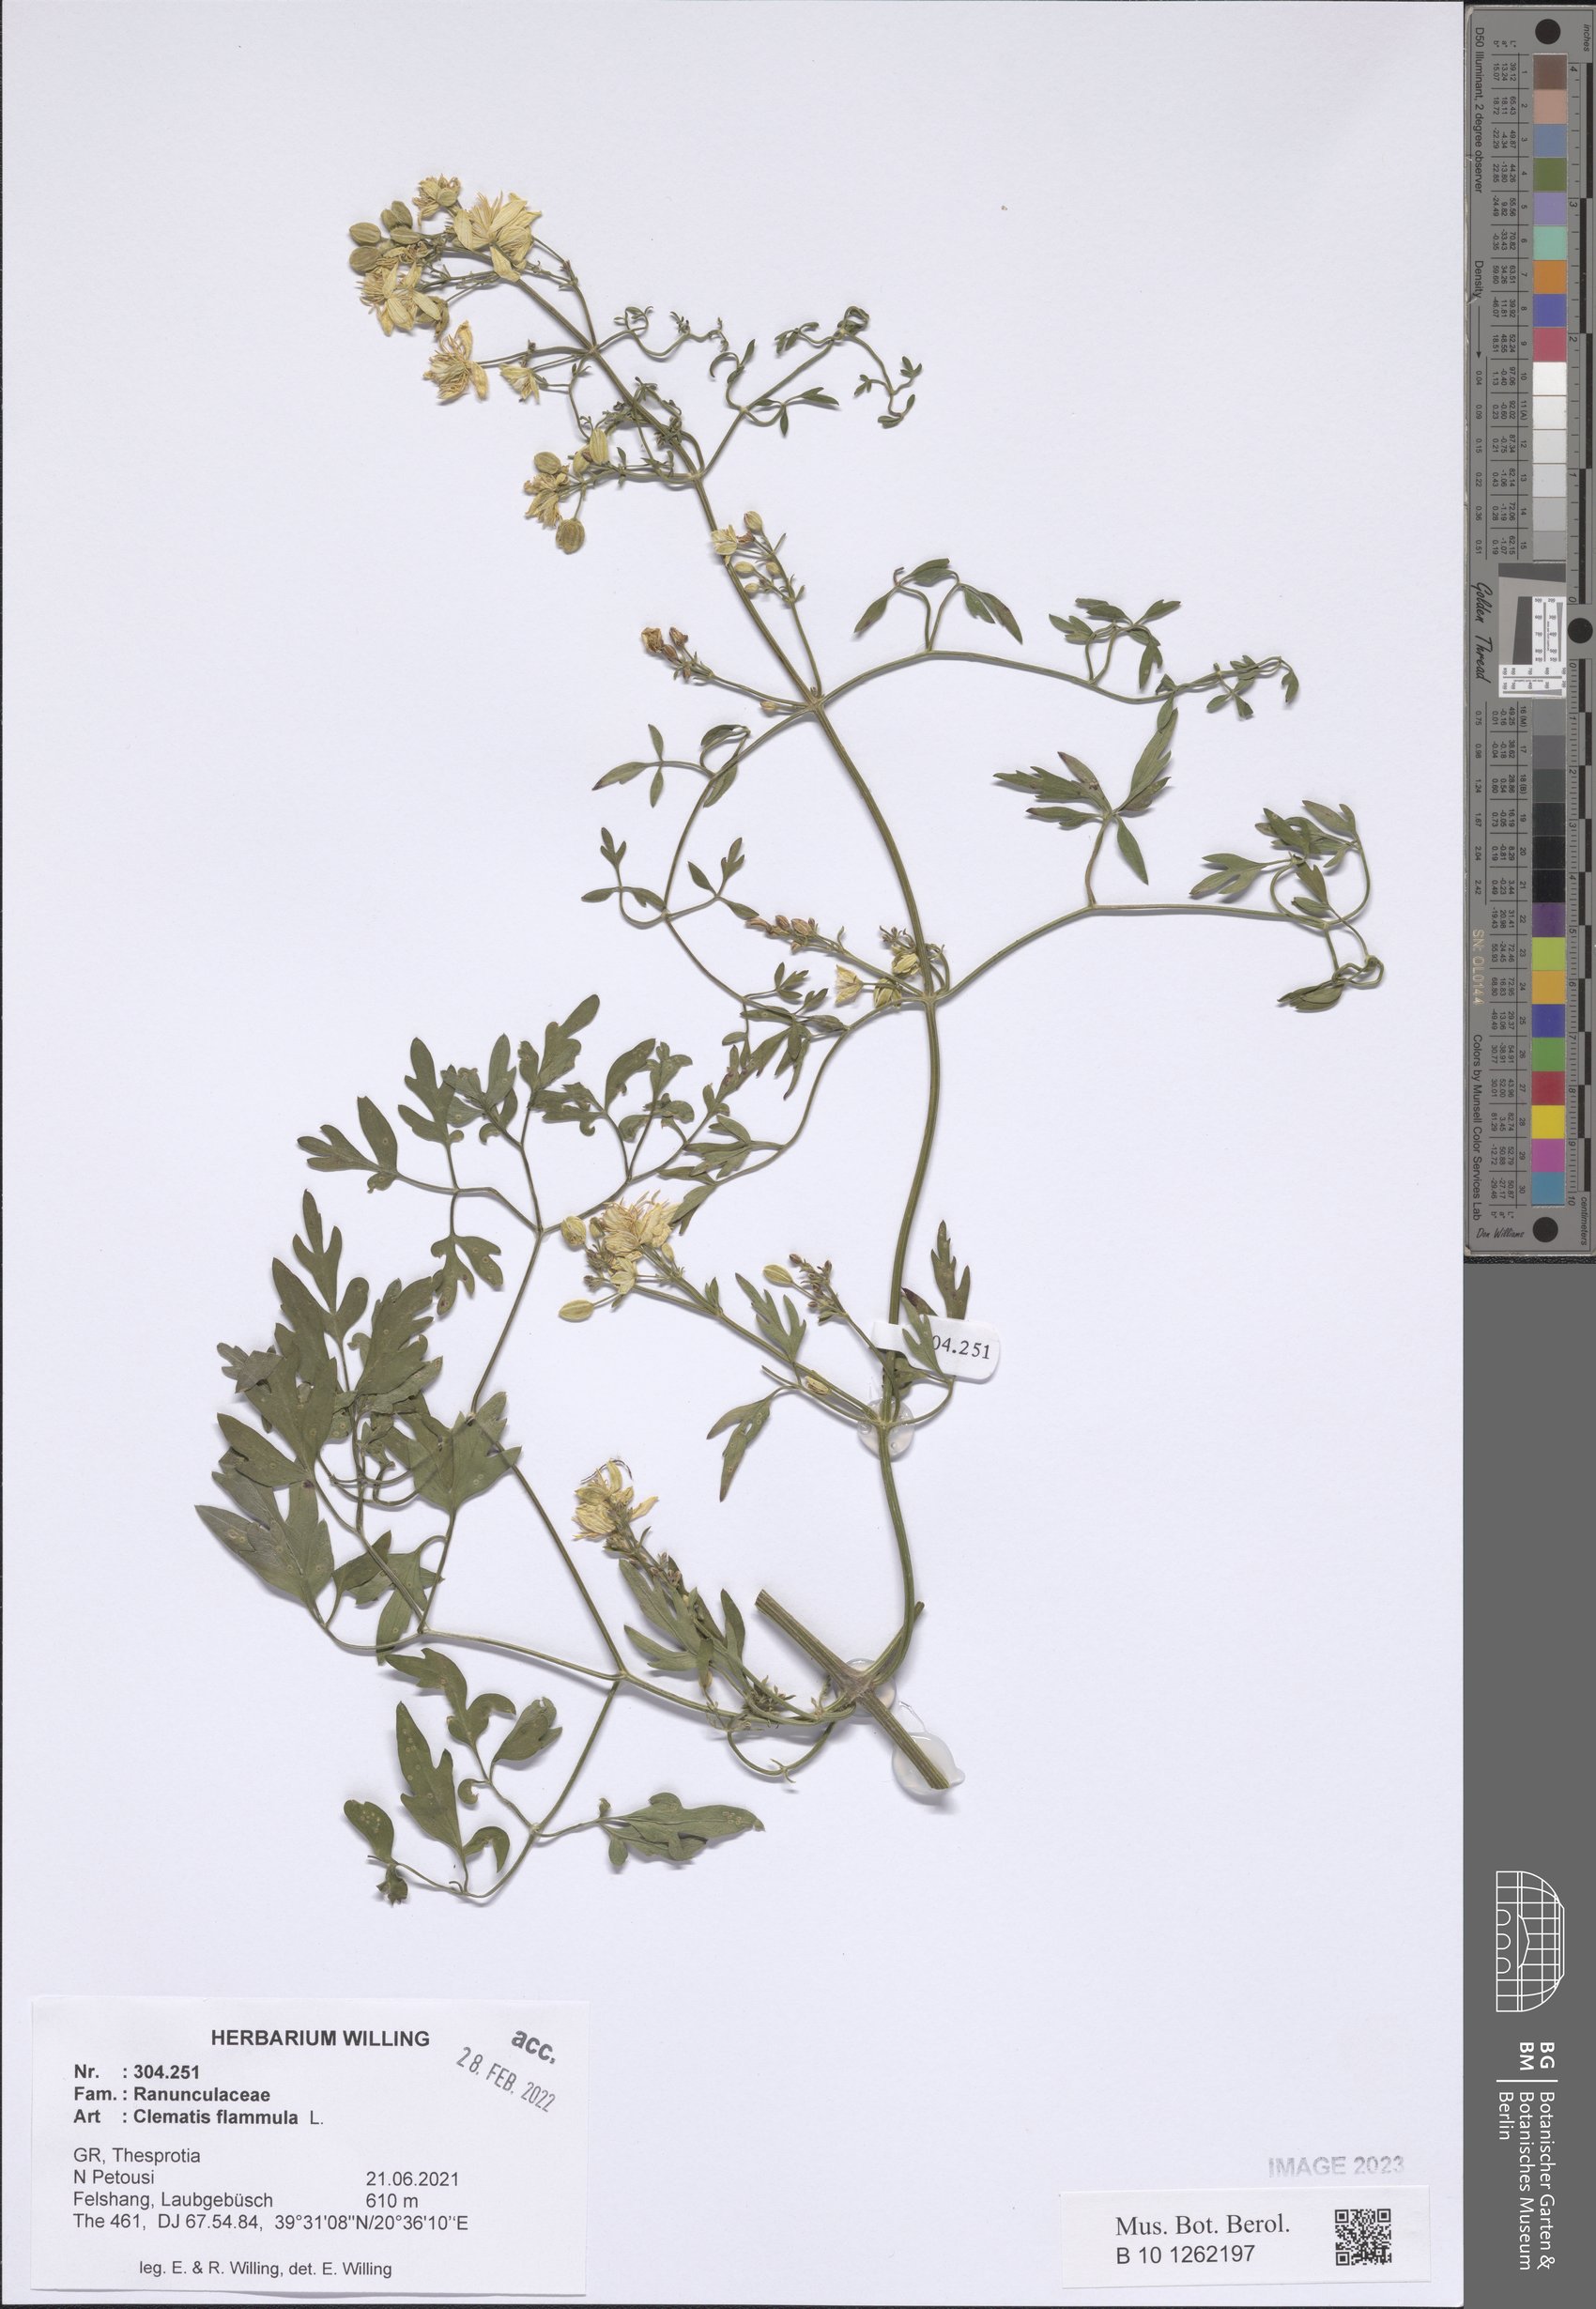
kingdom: Plantae
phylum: Tracheophyta
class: Magnoliopsida
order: Ranunculales
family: Ranunculaceae
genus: Clematis
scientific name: Clematis flammula
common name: Virgin's-bower
